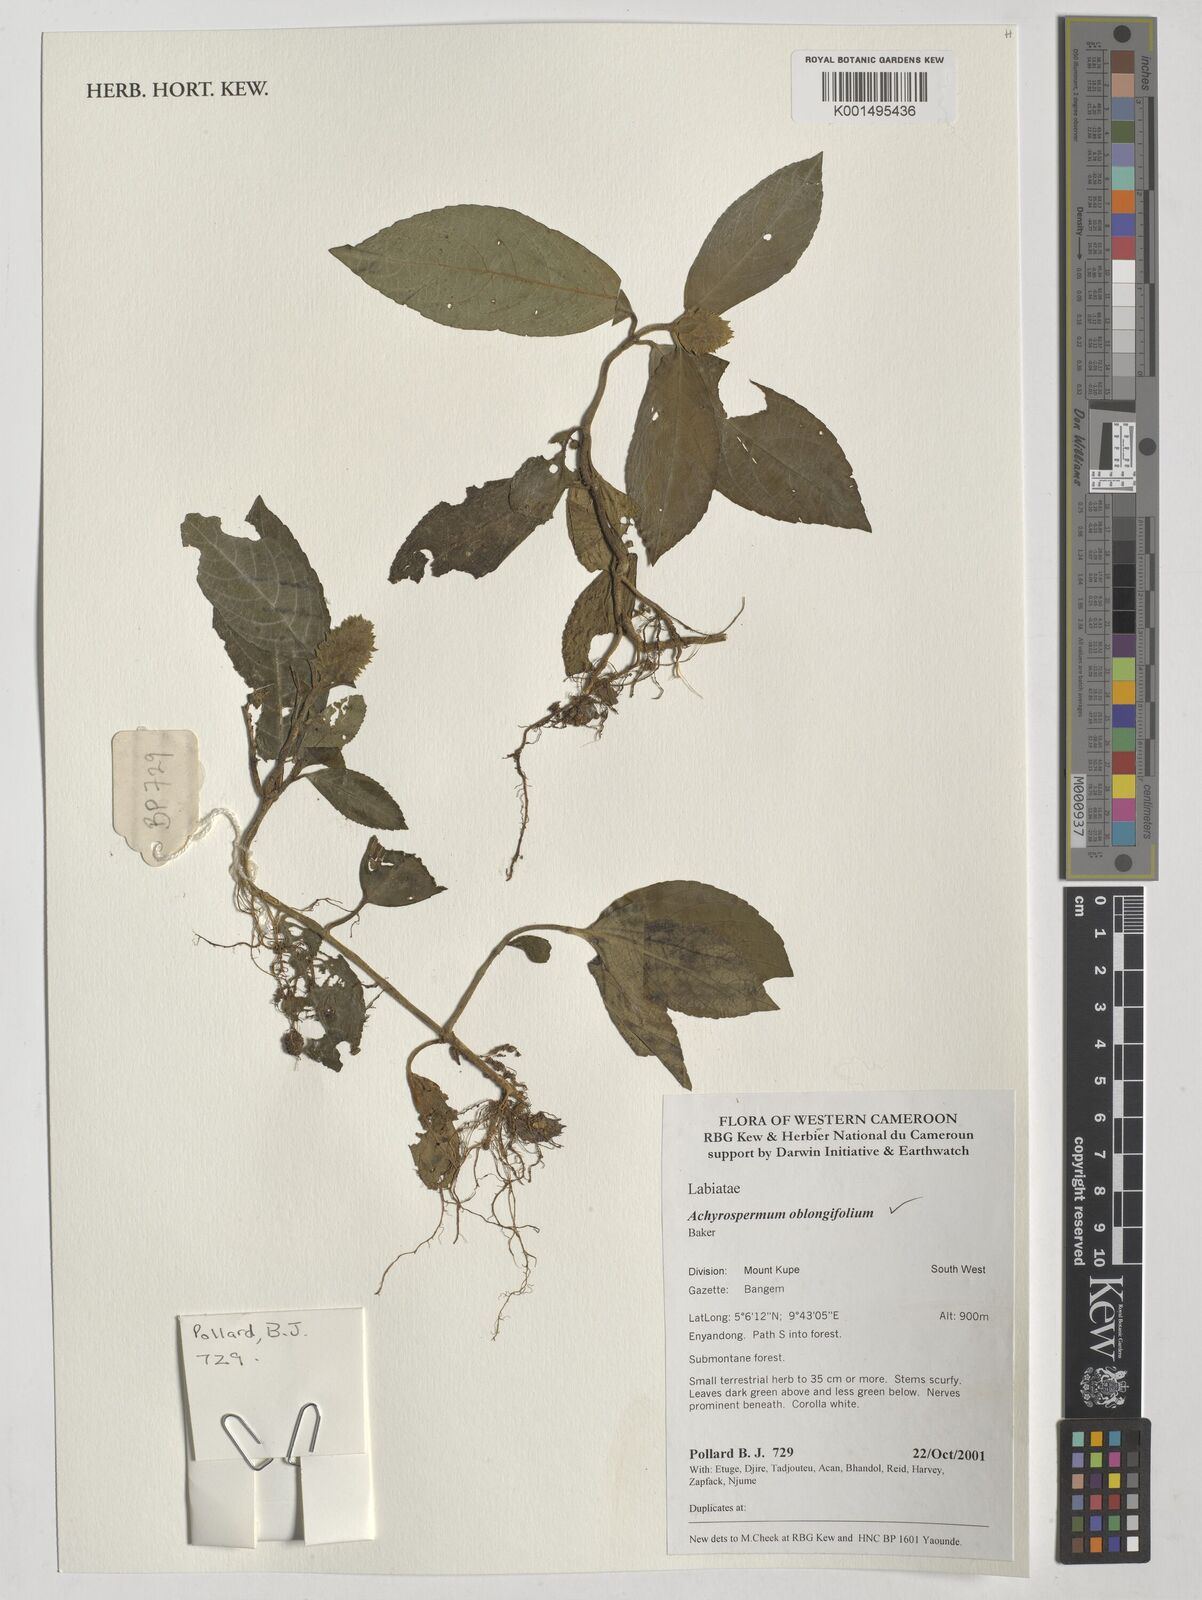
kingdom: Plantae
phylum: Tracheophyta
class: Magnoliopsida
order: Lamiales
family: Lamiaceae
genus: Achyrospermum
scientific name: Achyrospermum oblongifolium
